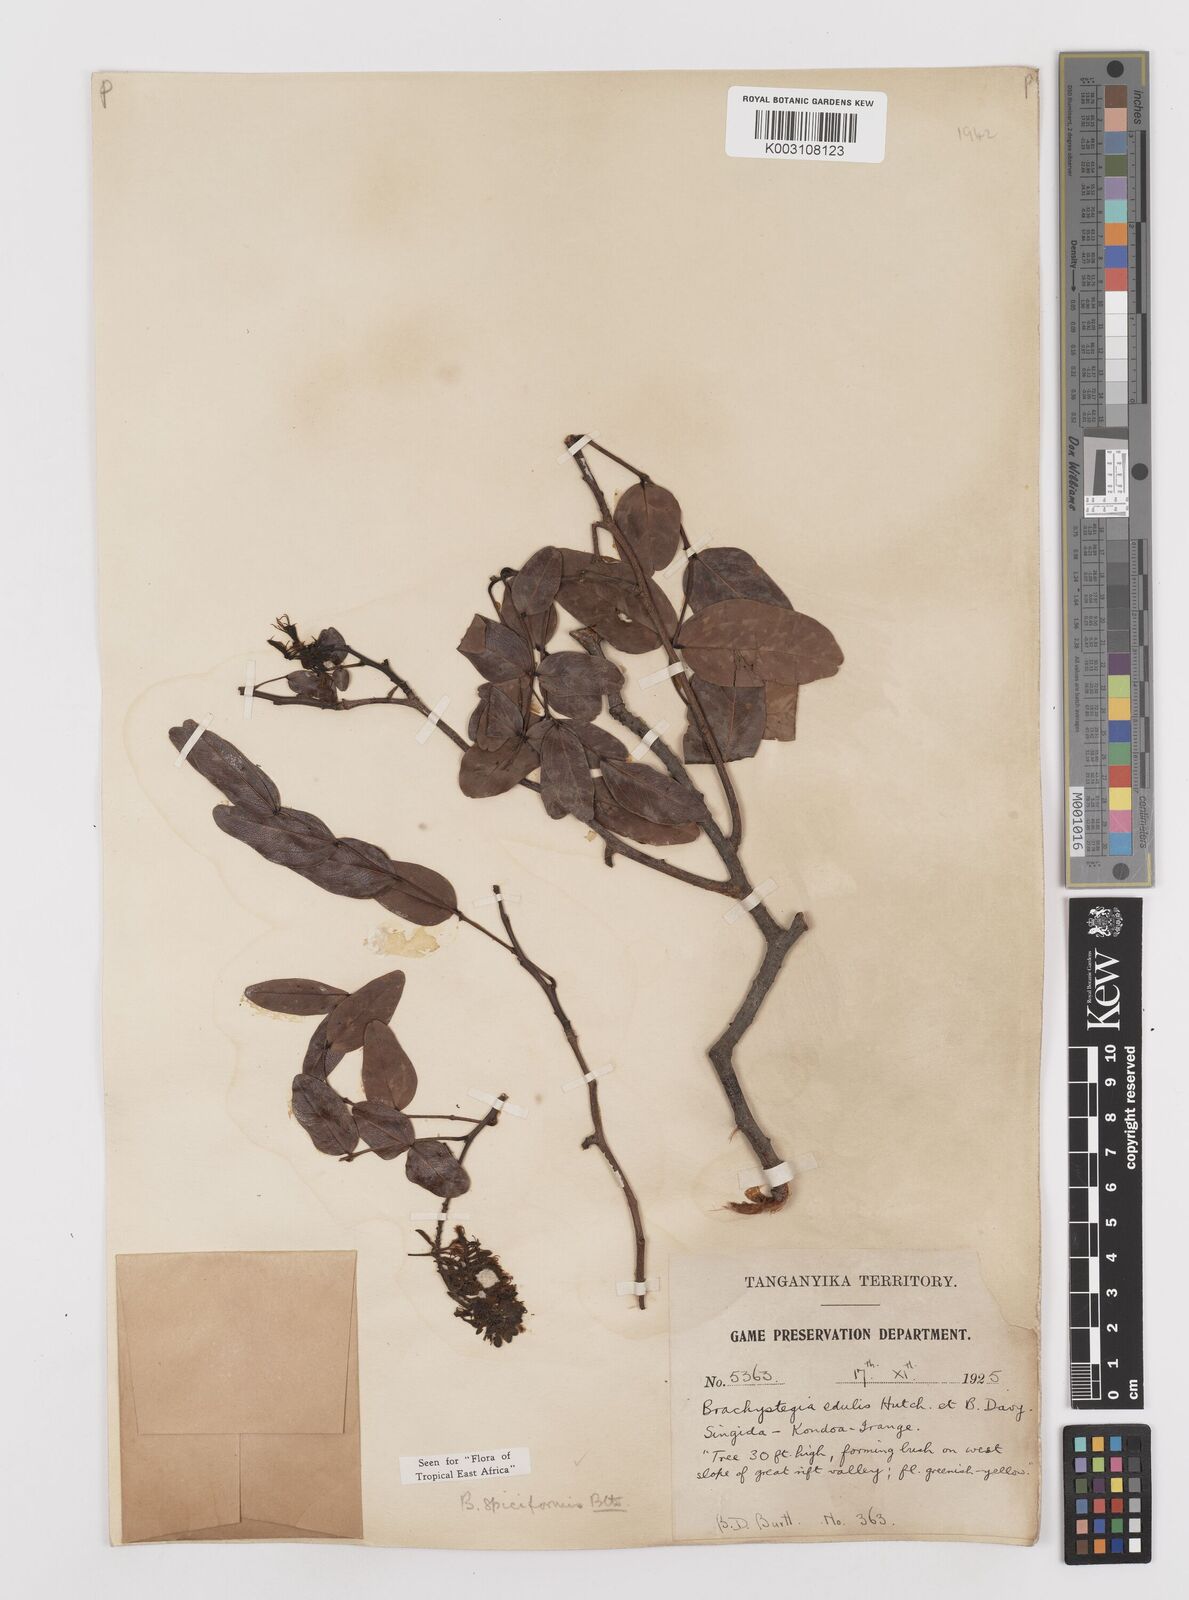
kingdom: Plantae
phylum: Tracheophyta
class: Magnoliopsida
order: Fabales
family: Fabaceae
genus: Brachystegia
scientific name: Brachystegia spiciformis
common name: Zebrawood
